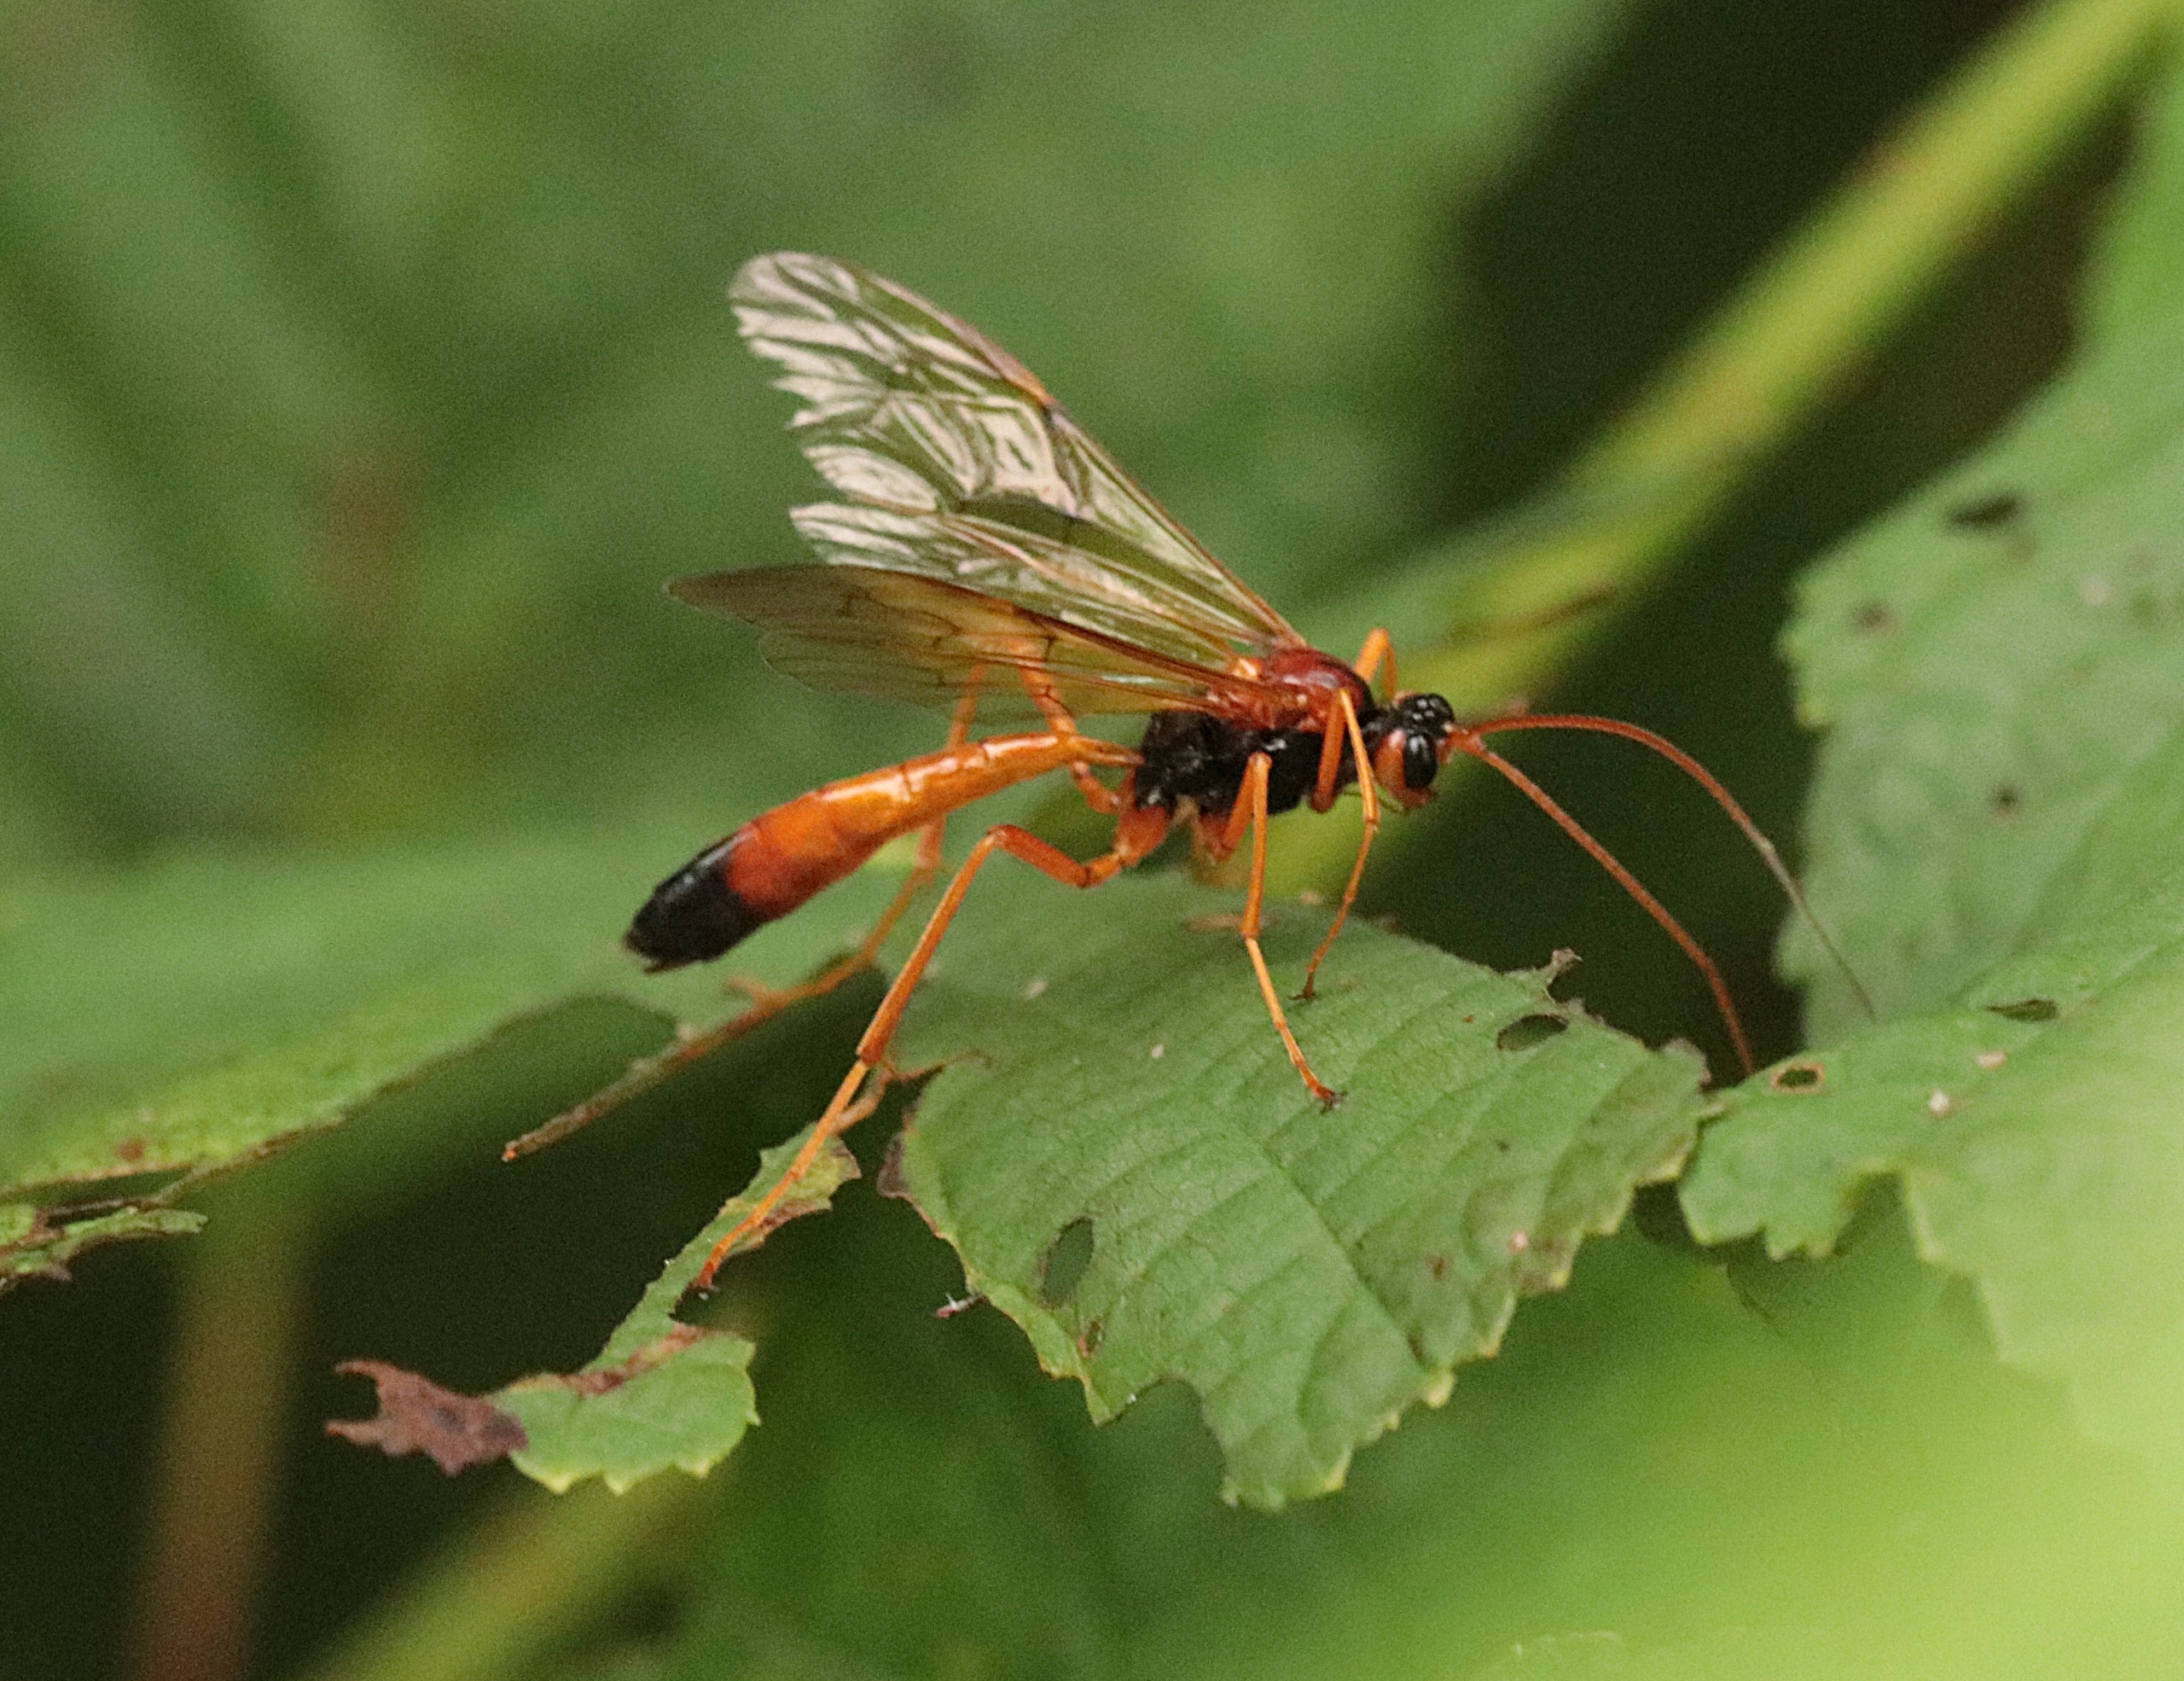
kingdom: Animalia
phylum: Arthropoda
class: Insecta
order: Hymenoptera
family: Ichneumonidae
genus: Opheltes
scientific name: Opheltes glaucopterus
